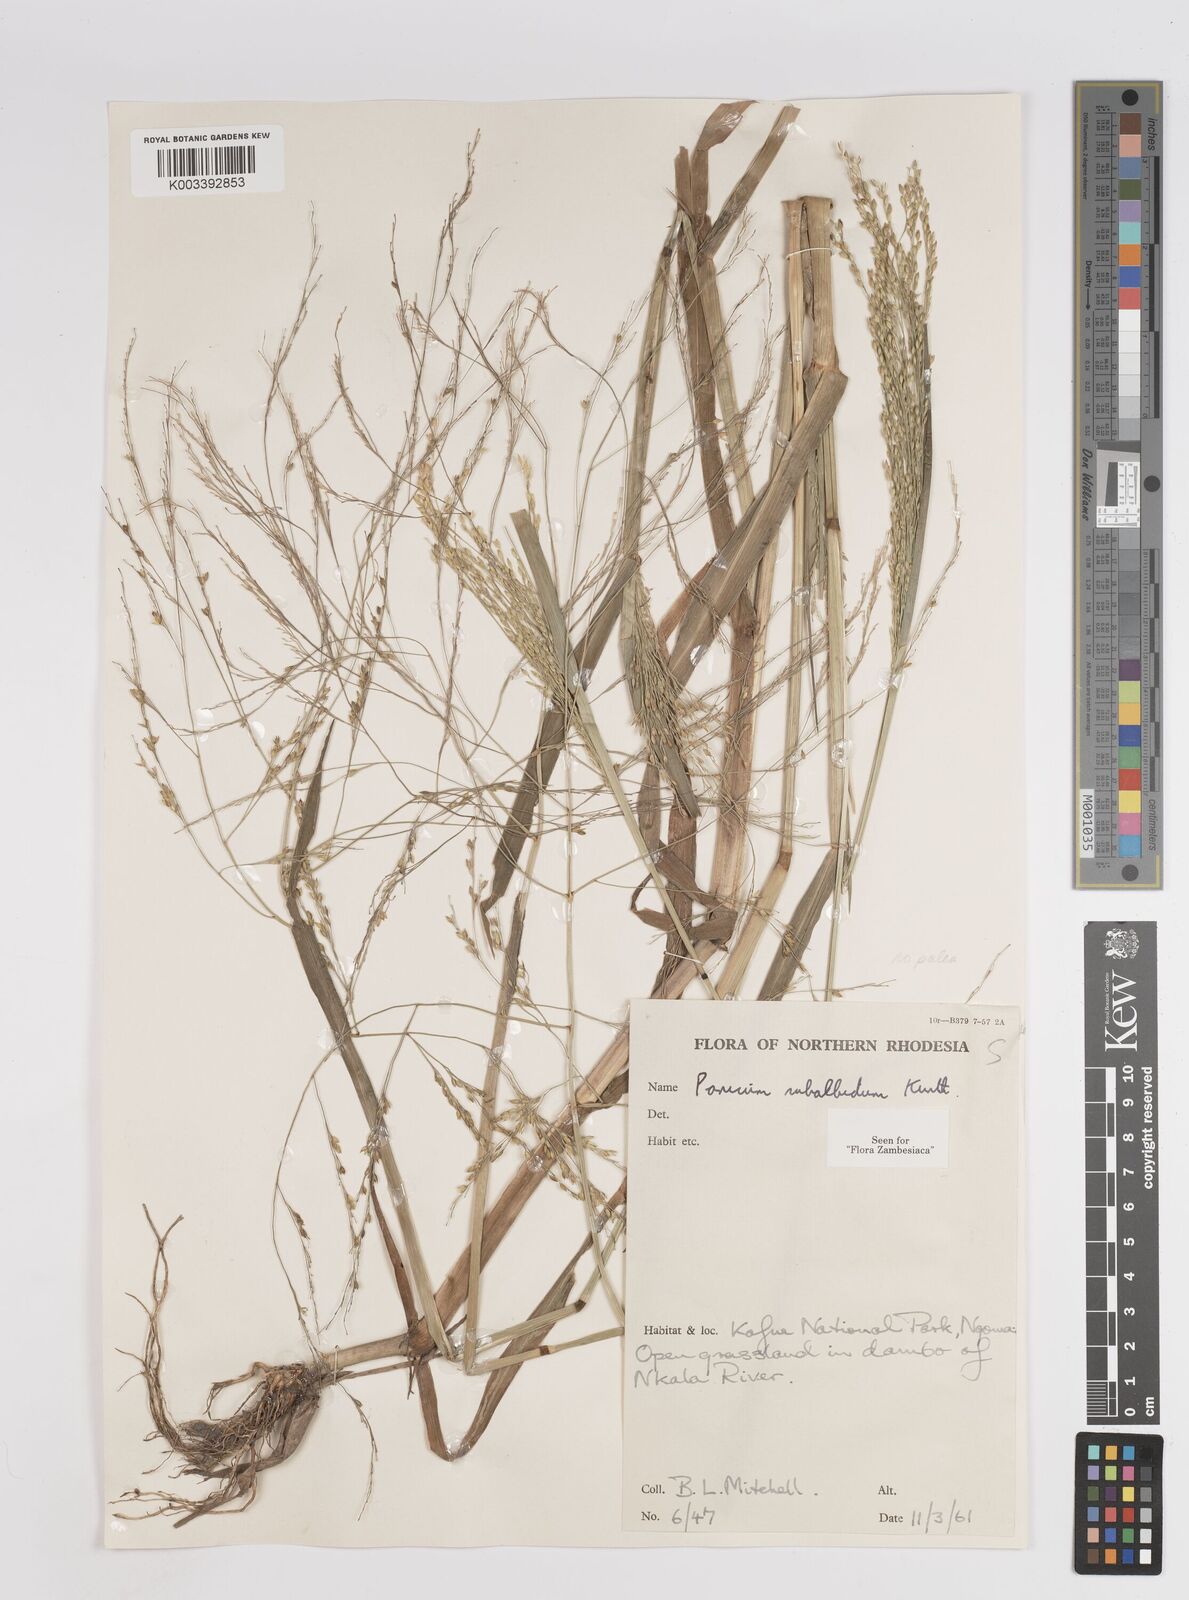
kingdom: Plantae
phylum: Tracheophyta
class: Liliopsida
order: Poales
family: Poaceae
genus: Panicum
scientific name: Panicum subalbidum
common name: Elbow buffalo grass
